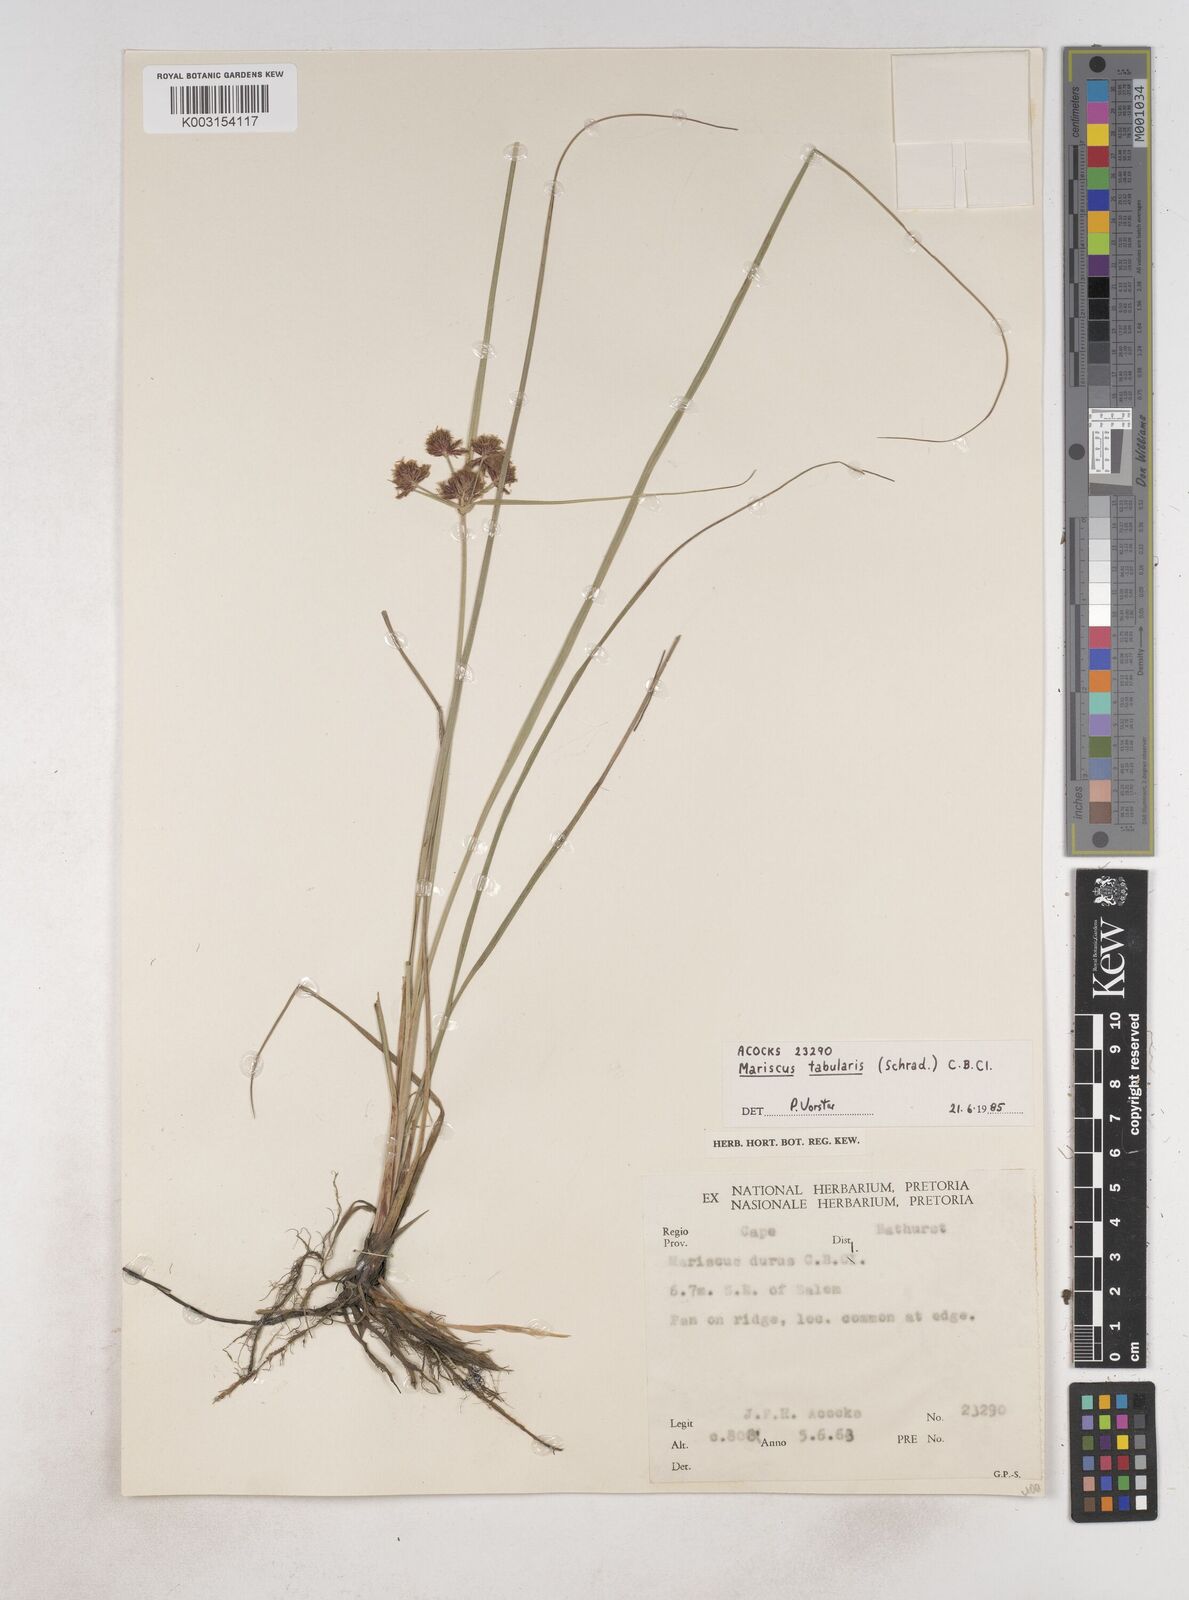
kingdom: Plantae
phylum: Tracheophyta
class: Liliopsida
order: Poales
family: Cyperaceae
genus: Cyperus
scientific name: Cyperus tabularis
